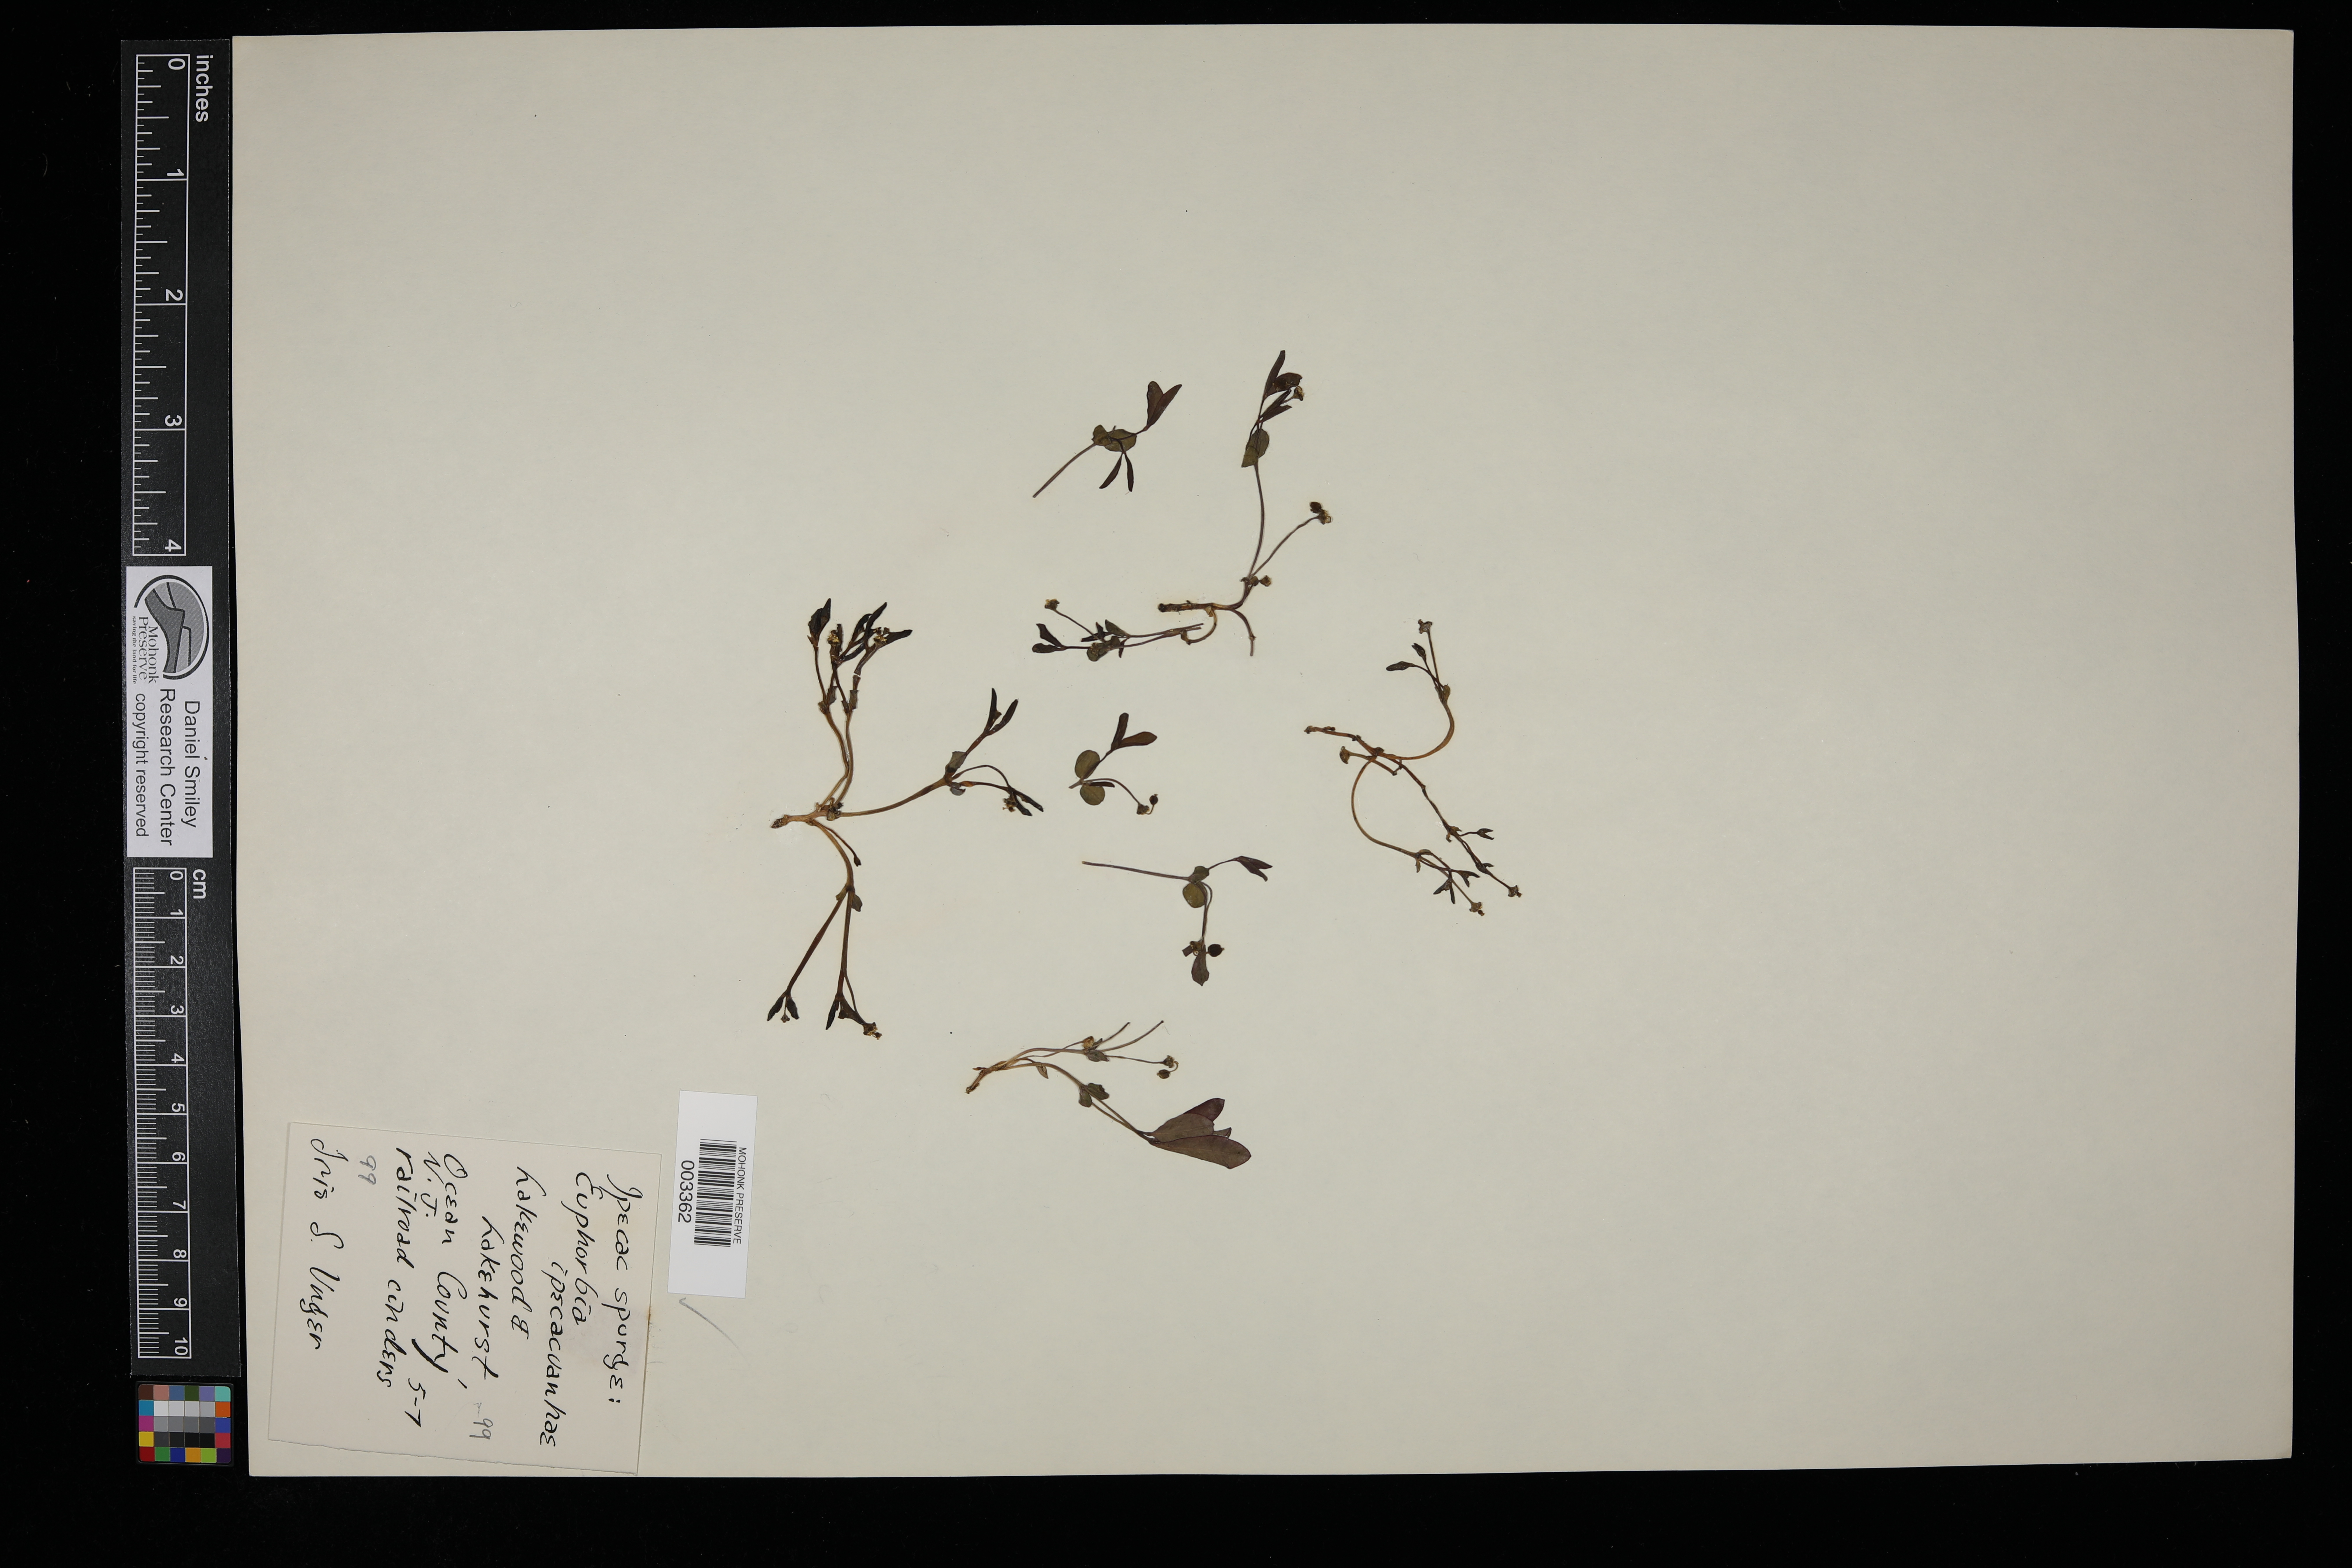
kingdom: Plantae
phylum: Tracheophyta
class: Magnoliopsida
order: Malpighiales
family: Euphorbiaceae
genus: Euphorbia
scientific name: Euphorbia ipecacuanhae
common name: Carolina ipecac
